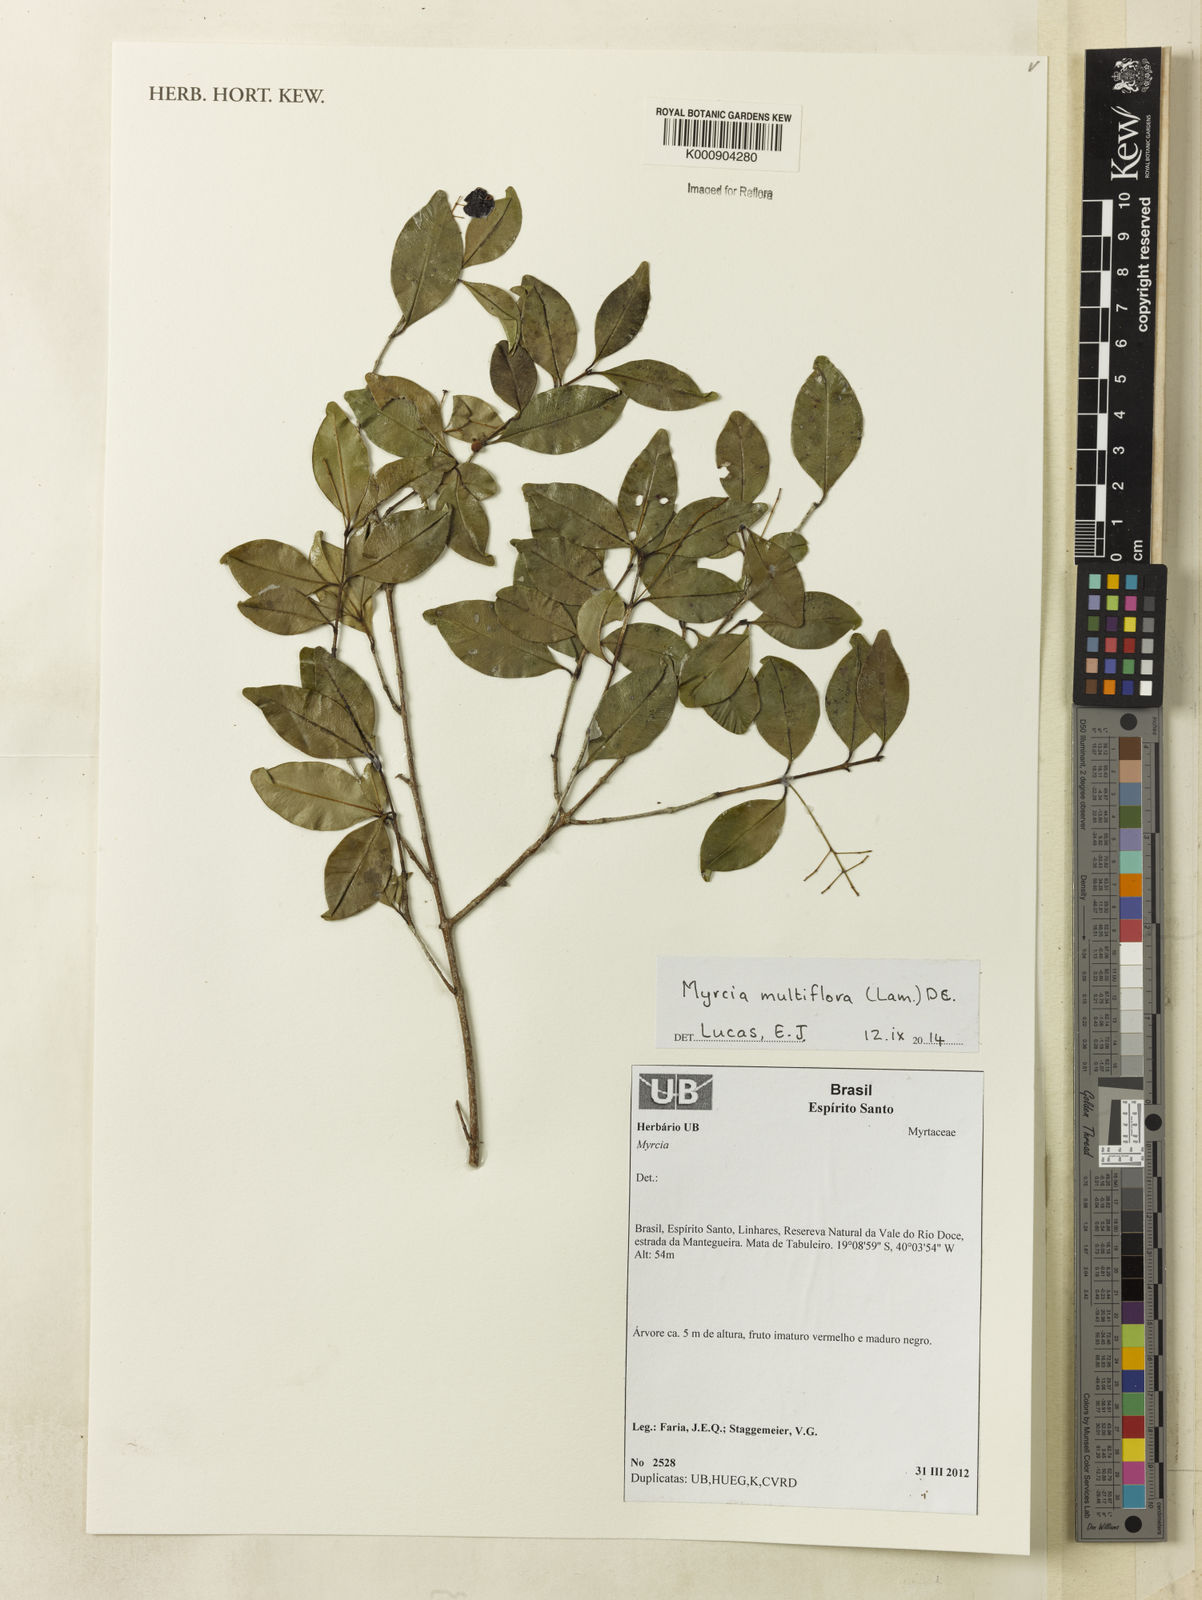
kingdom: Plantae
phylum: Tracheophyta
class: Magnoliopsida
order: Myrtales
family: Myrtaceae
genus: Myrcia
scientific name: Myrcia multiflora
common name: Pedra hume
